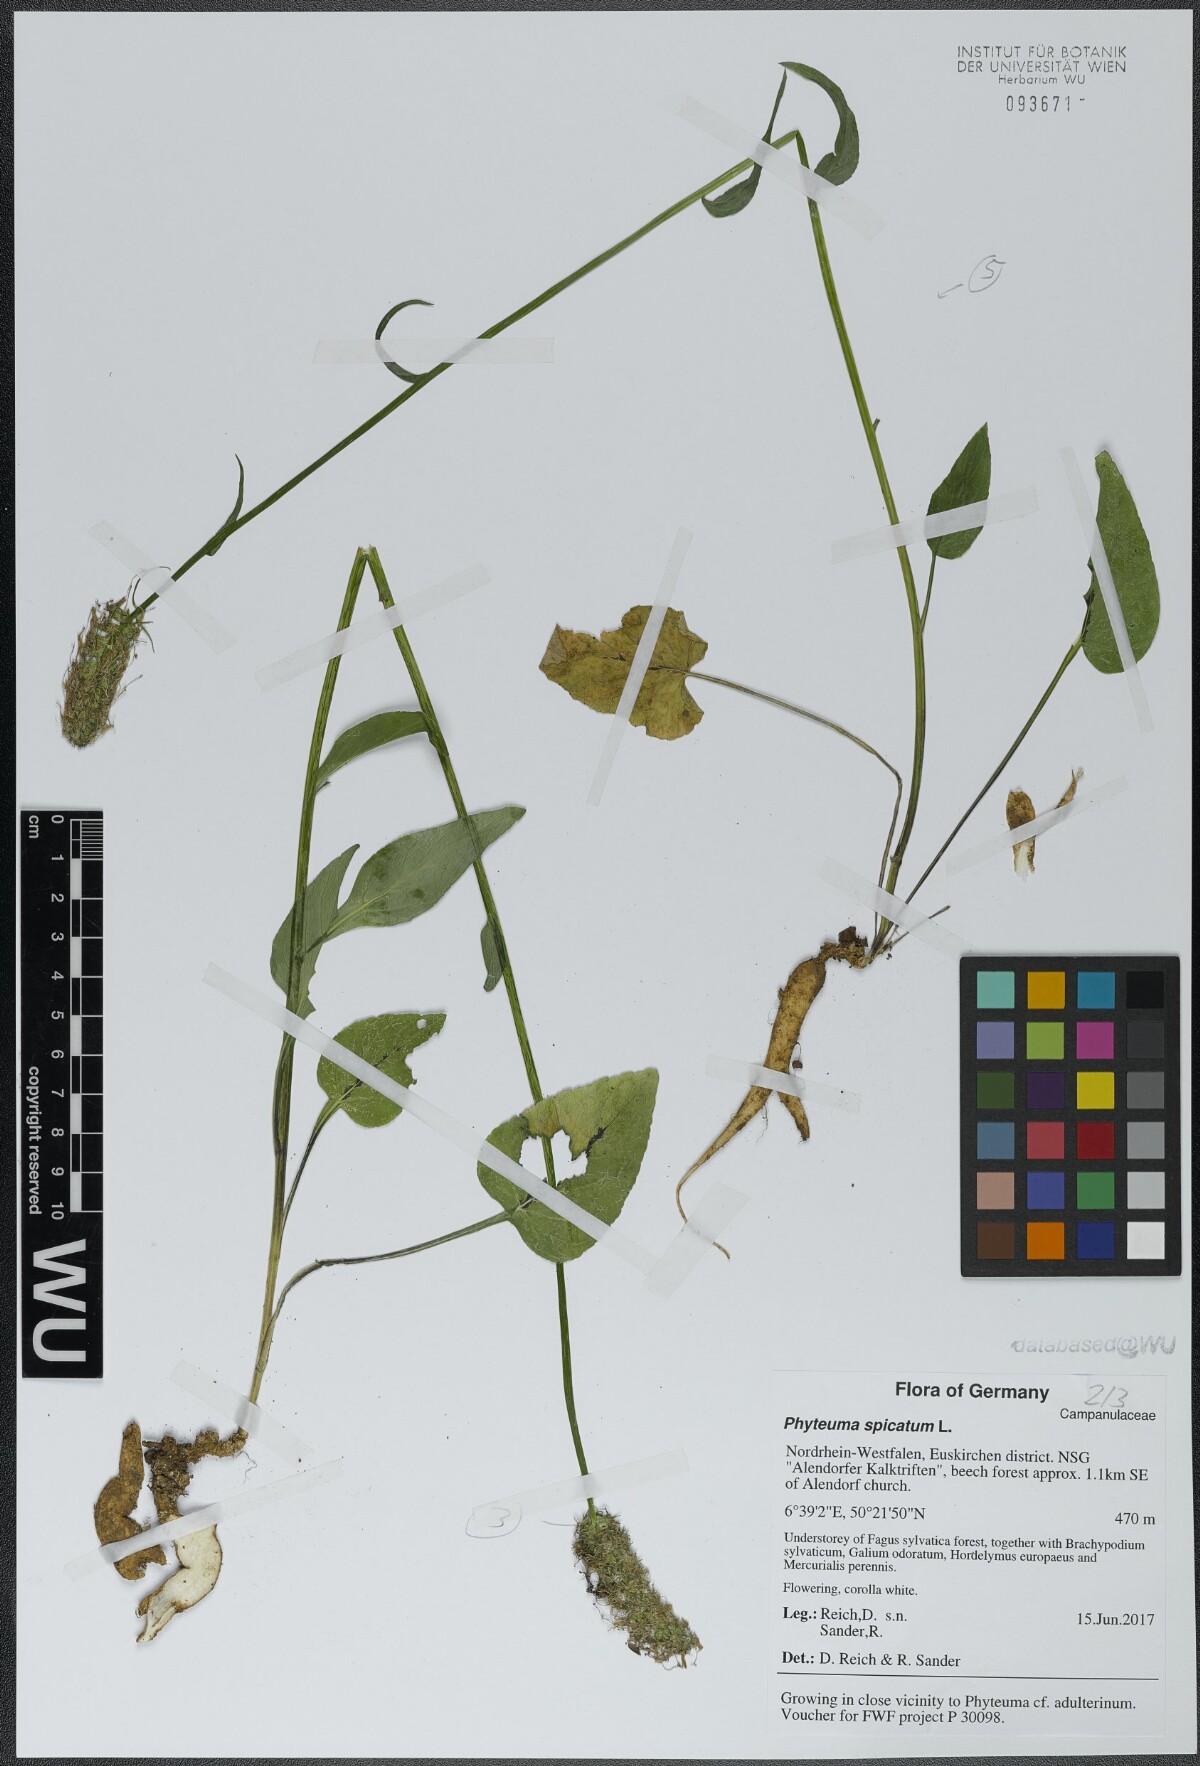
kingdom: Plantae
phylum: Tracheophyta
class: Magnoliopsida
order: Asterales
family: Campanulaceae
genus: Phyteuma
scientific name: Phyteuma spicatum
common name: Spiked rampion
